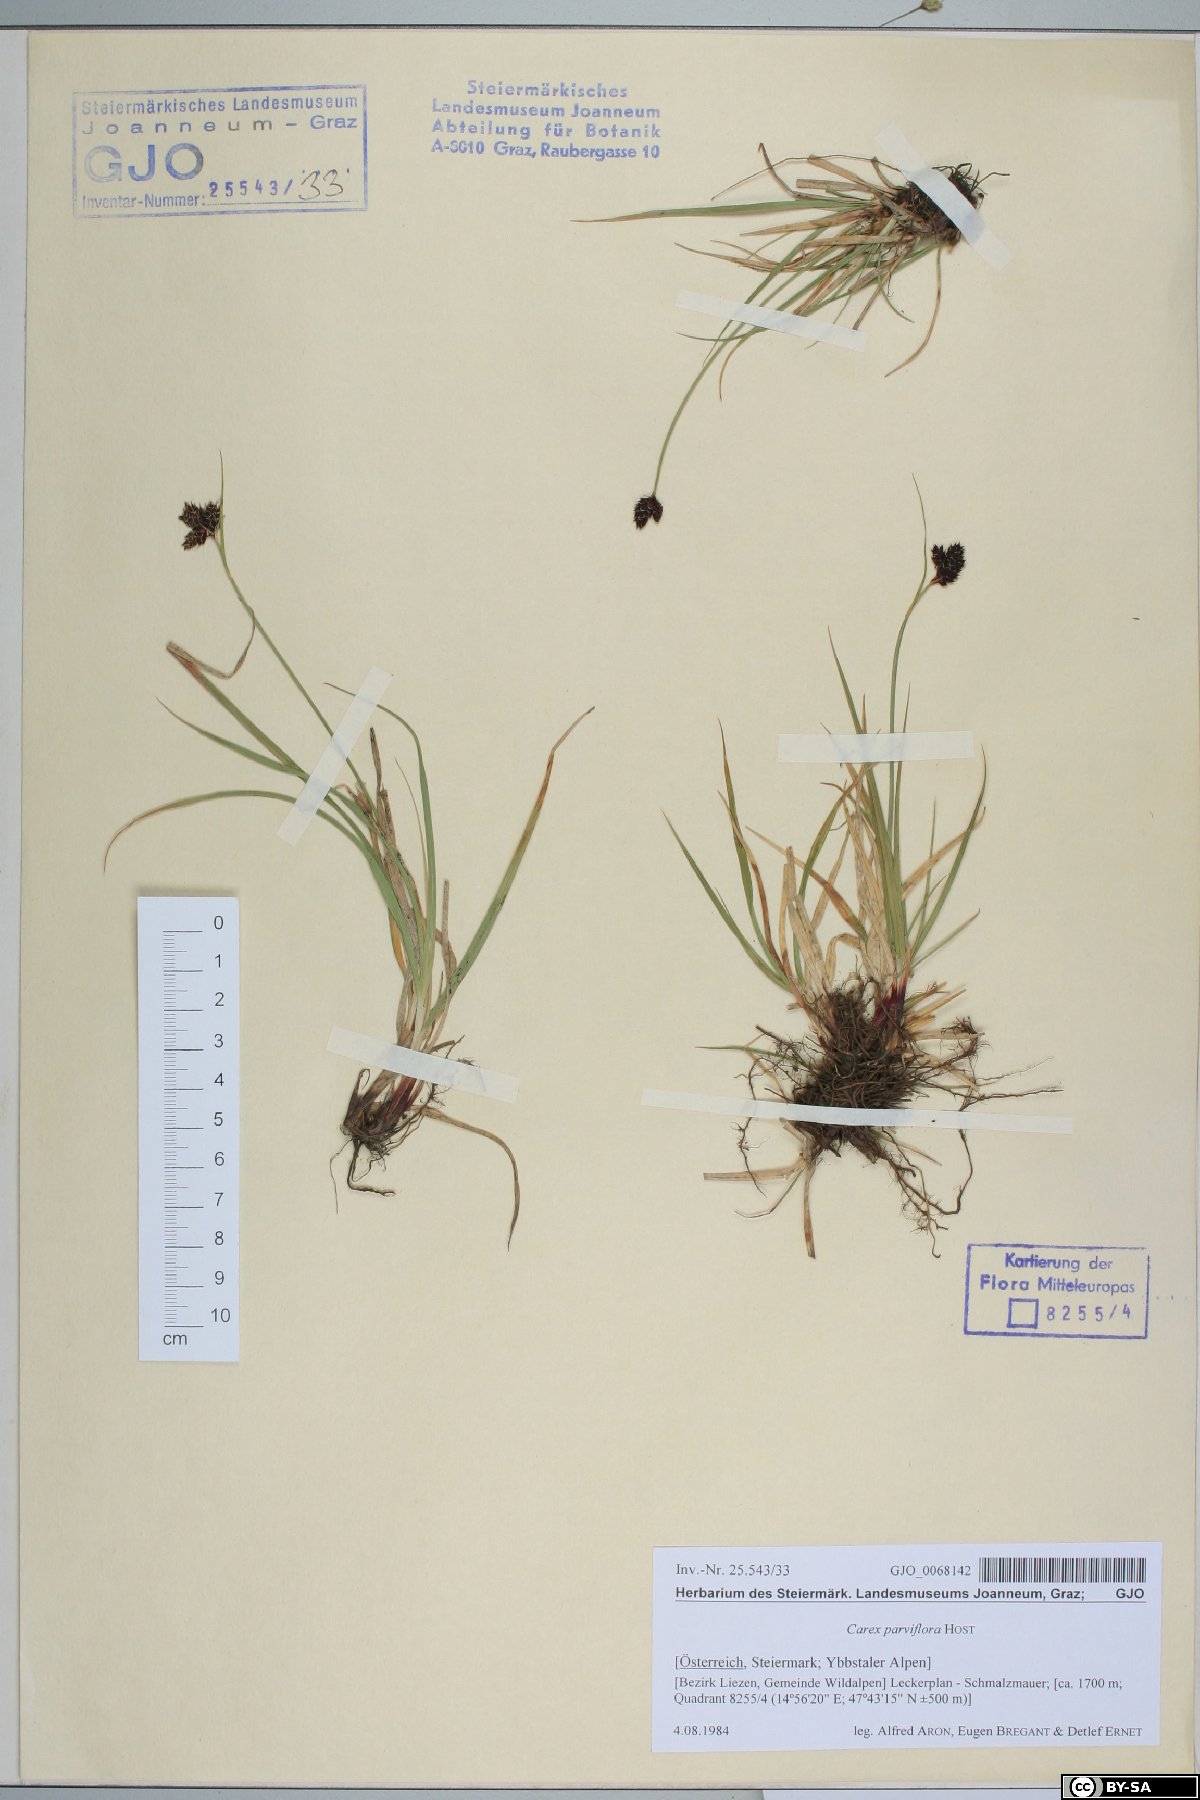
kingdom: Plantae
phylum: Tracheophyta
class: Liliopsida
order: Poales
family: Cyperaceae
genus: Carex
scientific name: Carex parviflora
